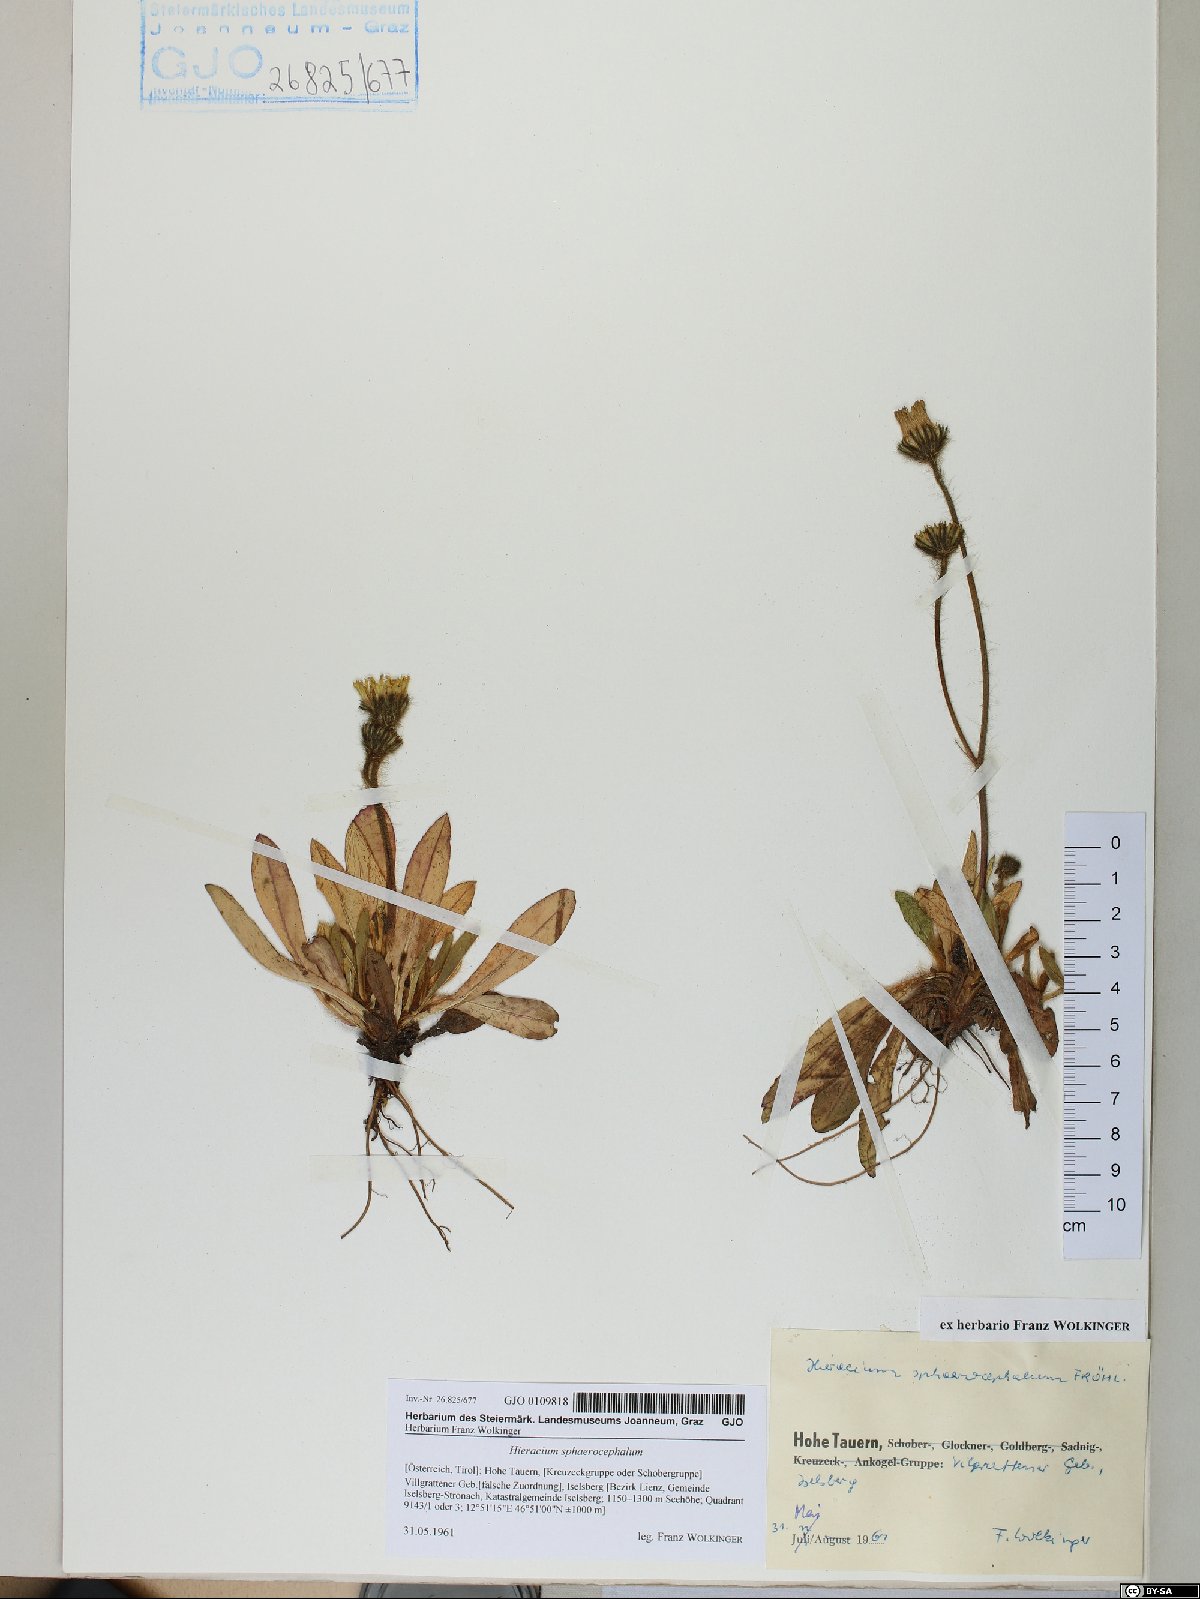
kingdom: Plantae
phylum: Tracheophyta
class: Magnoliopsida
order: Asterales
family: Asteraceae
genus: Pilosella
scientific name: Pilosella sphaerocephala
